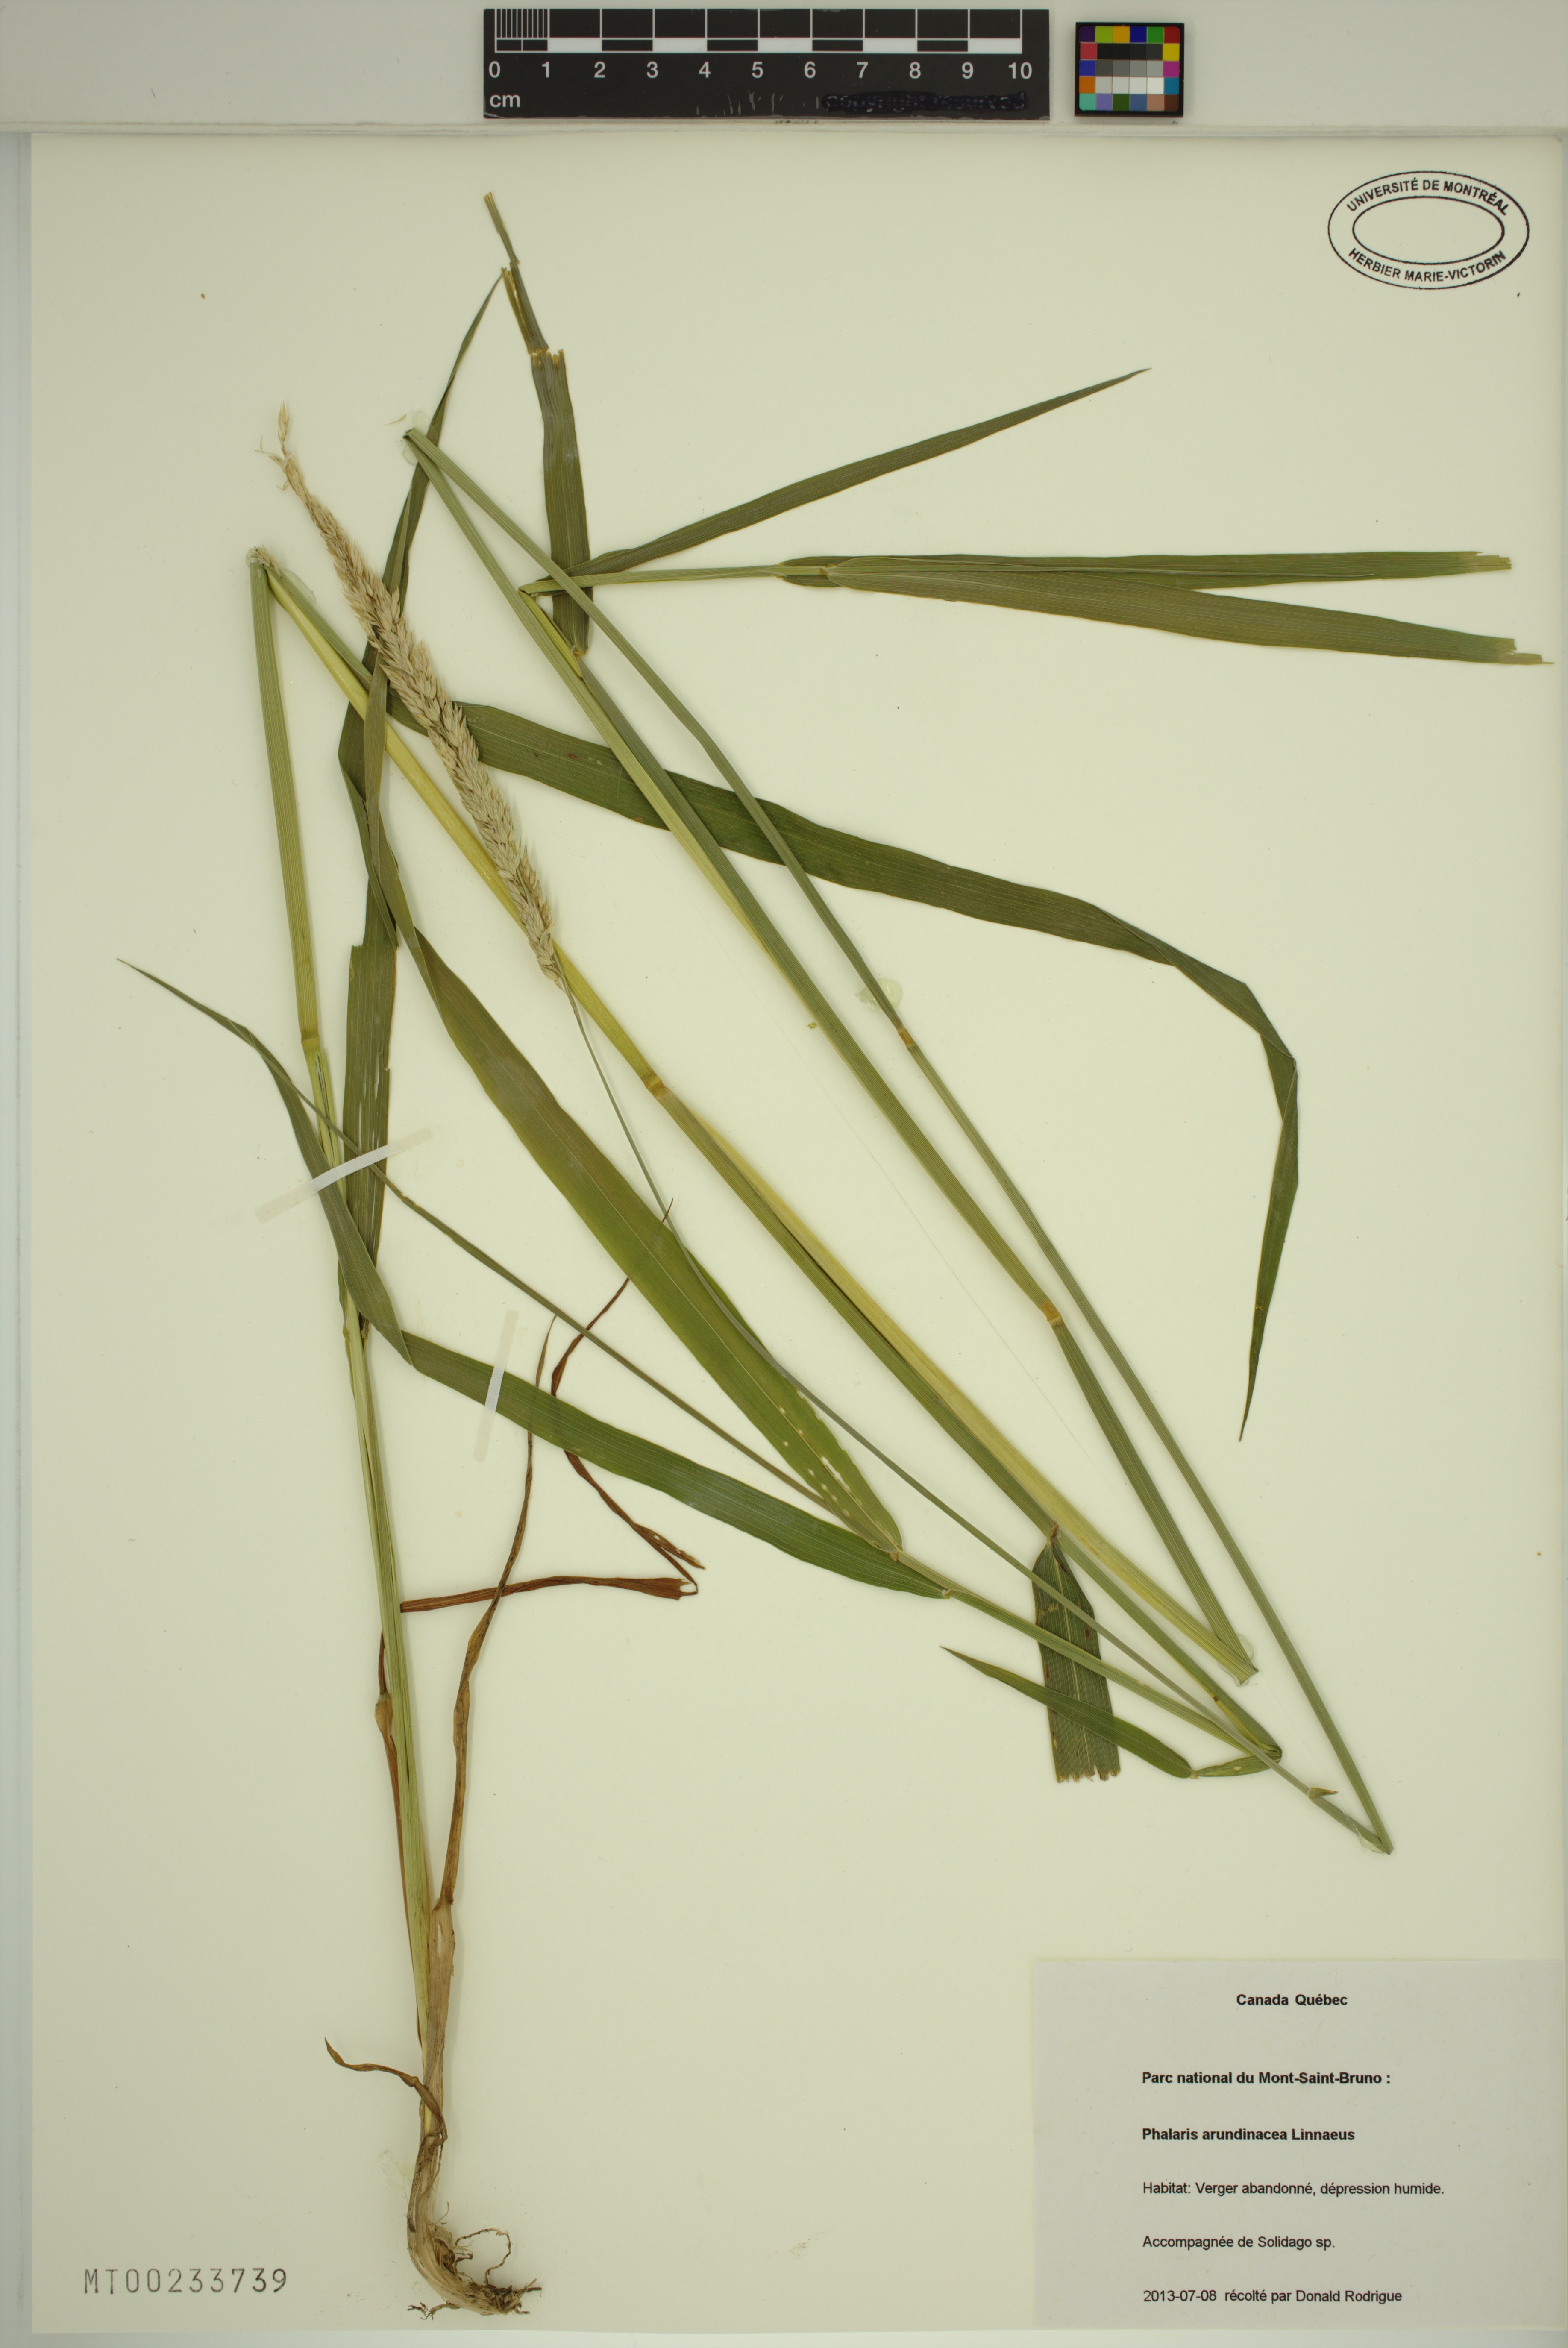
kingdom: Plantae
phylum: Tracheophyta
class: Liliopsida
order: Poales
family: Poaceae
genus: Phalaris
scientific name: Phalaris arundinacea
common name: Reed canary-grass
